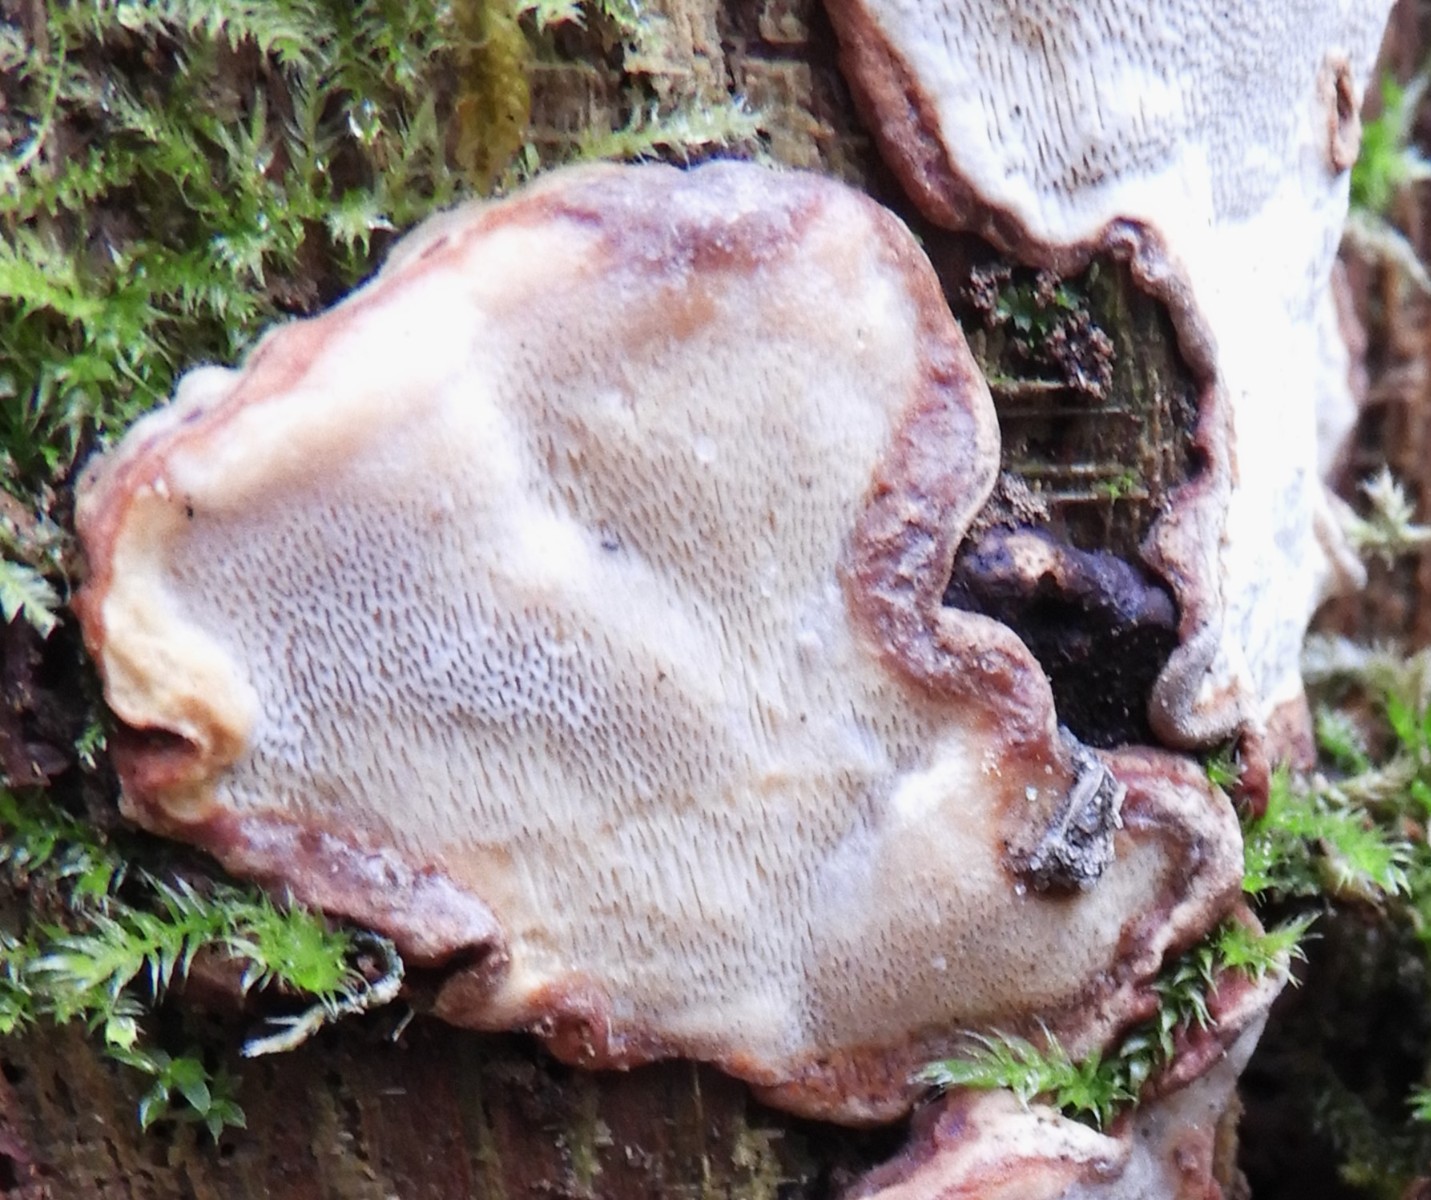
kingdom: Fungi
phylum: Basidiomycota
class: Agaricomycetes
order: Russulales
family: Bondarzewiaceae
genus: Heterobasidion
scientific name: Heterobasidion annosum
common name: almindelig rodfordærver
